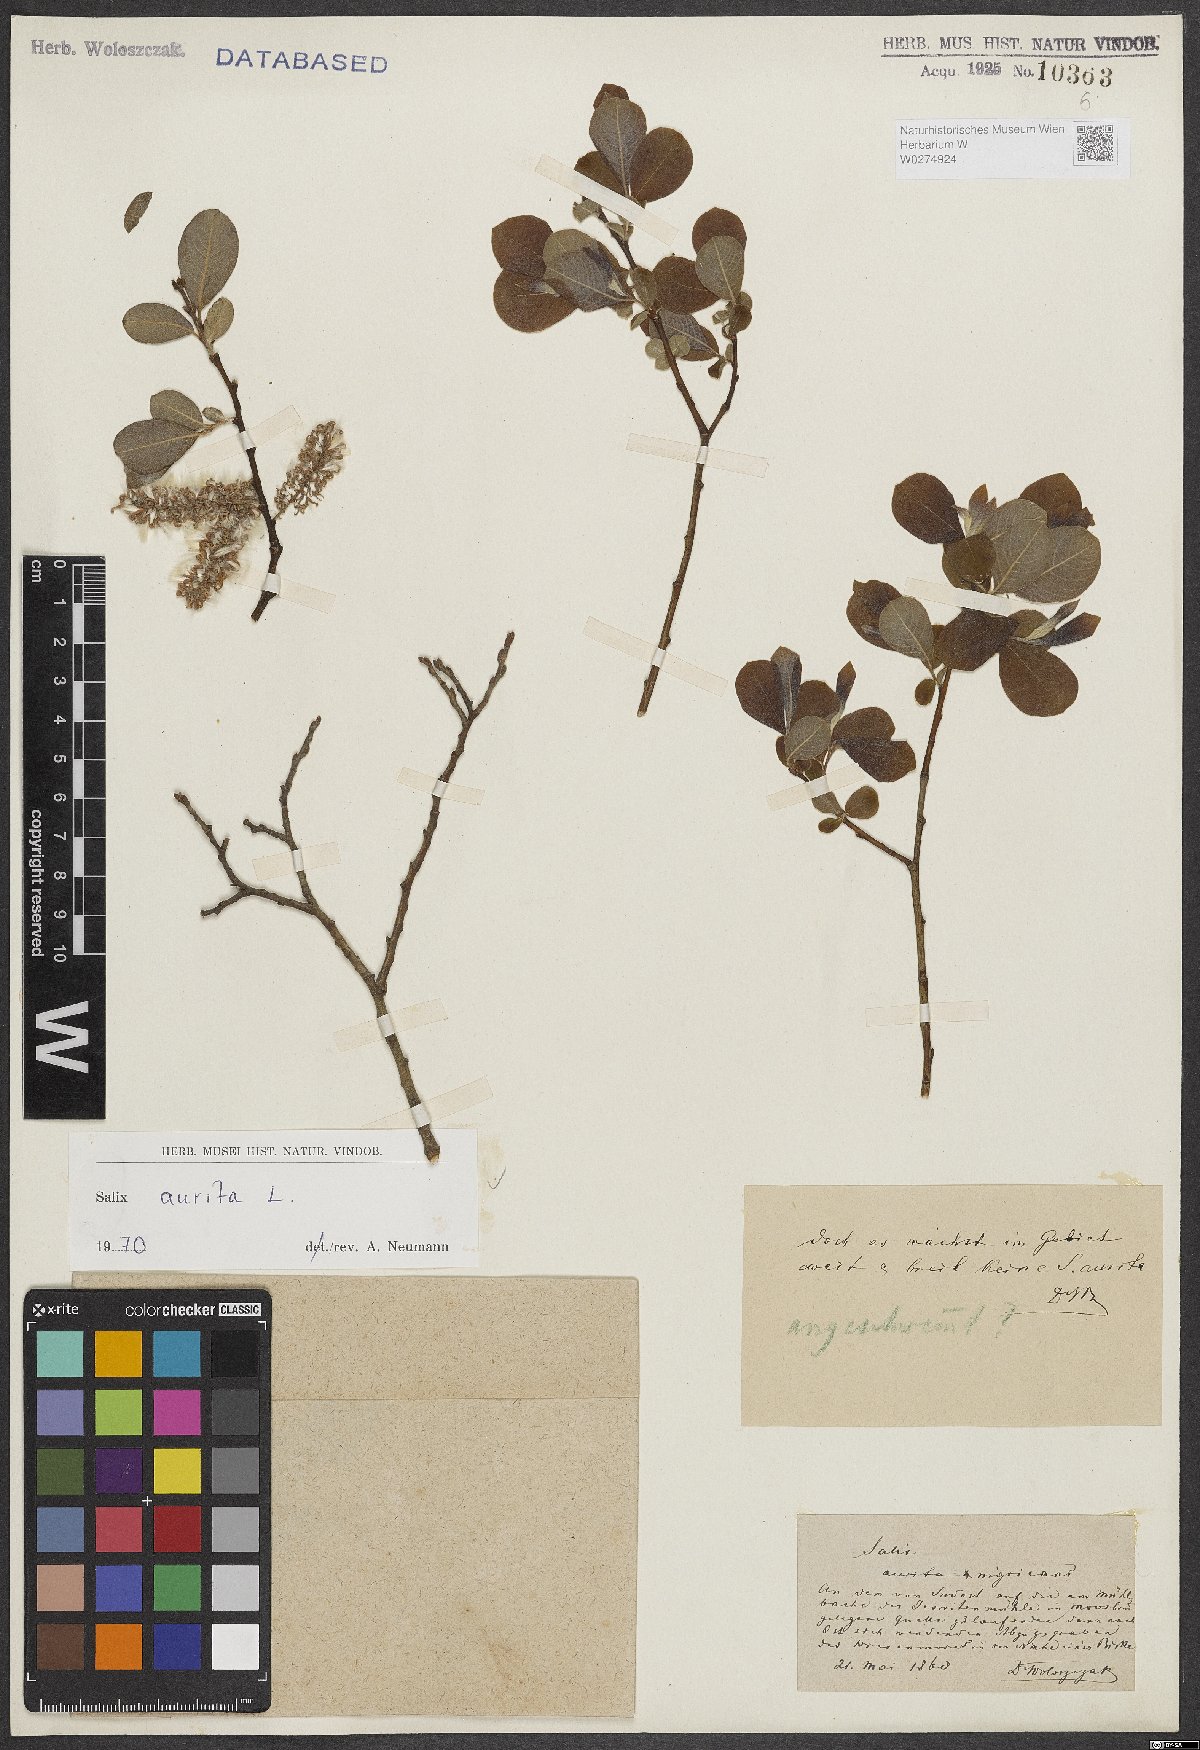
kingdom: Plantae
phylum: Tracheophyta
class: Magnoliopsida
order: Malpighiales
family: Salicaceae
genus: Salix
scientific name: Salix aurita
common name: Eared willow
